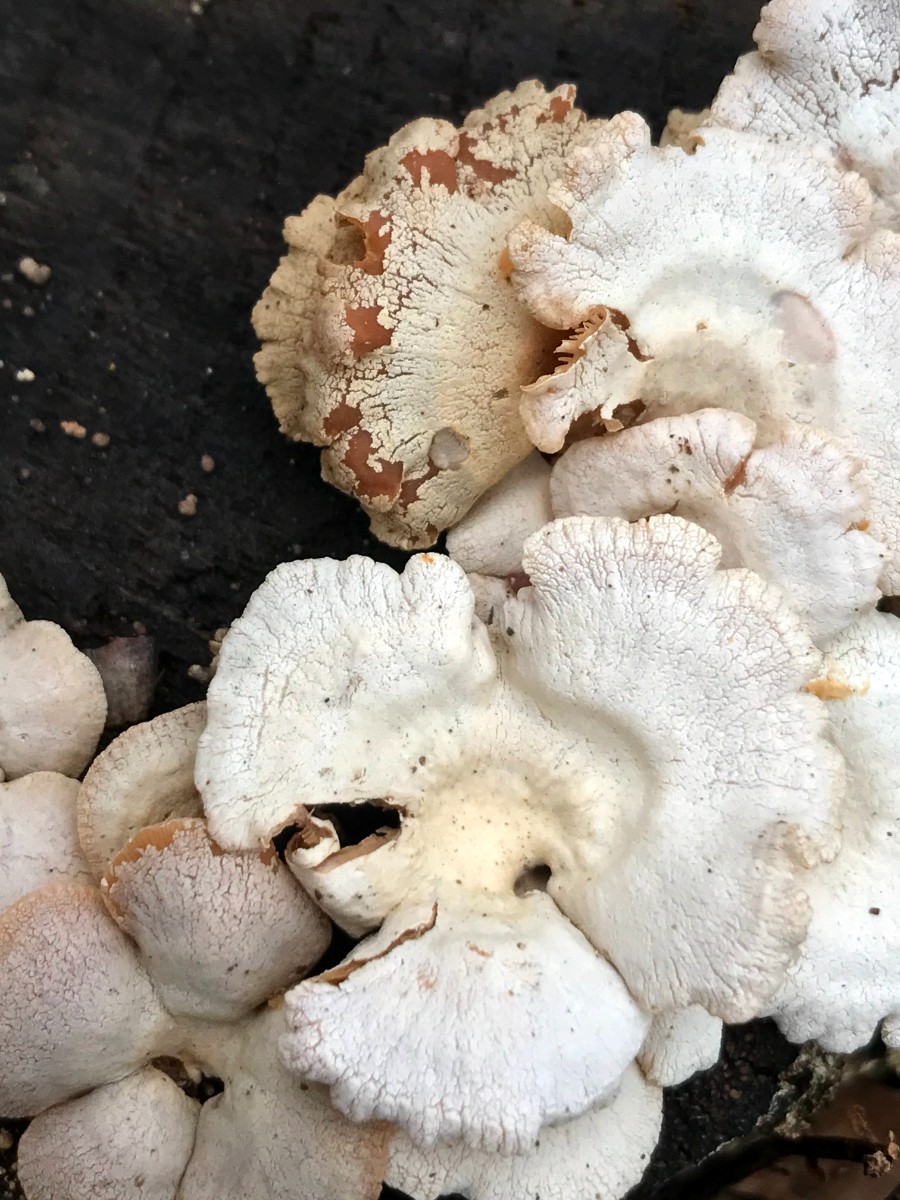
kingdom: Fungi
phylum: Basidiomycota
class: Agaricomycetes
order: Agaricales
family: Mycenaceae
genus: Panellus
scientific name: Panellus stipticus
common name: kliddet epaulethat
